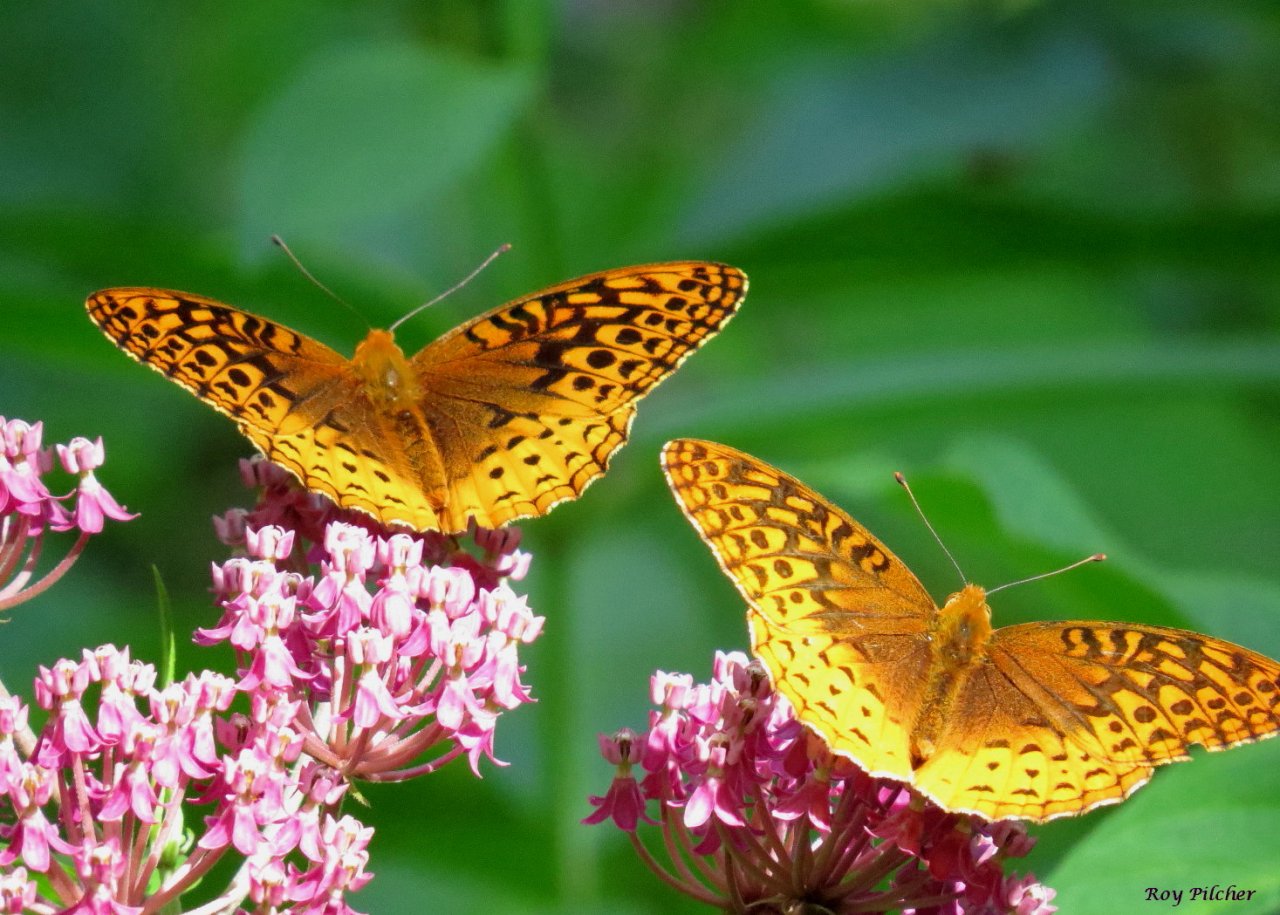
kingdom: Animalia
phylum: Arthropoda
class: Insecta
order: Lepidoptera
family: Nymphalidae
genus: Speyeria
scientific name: Speyeria cybele
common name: Great Spangled Fritillary
